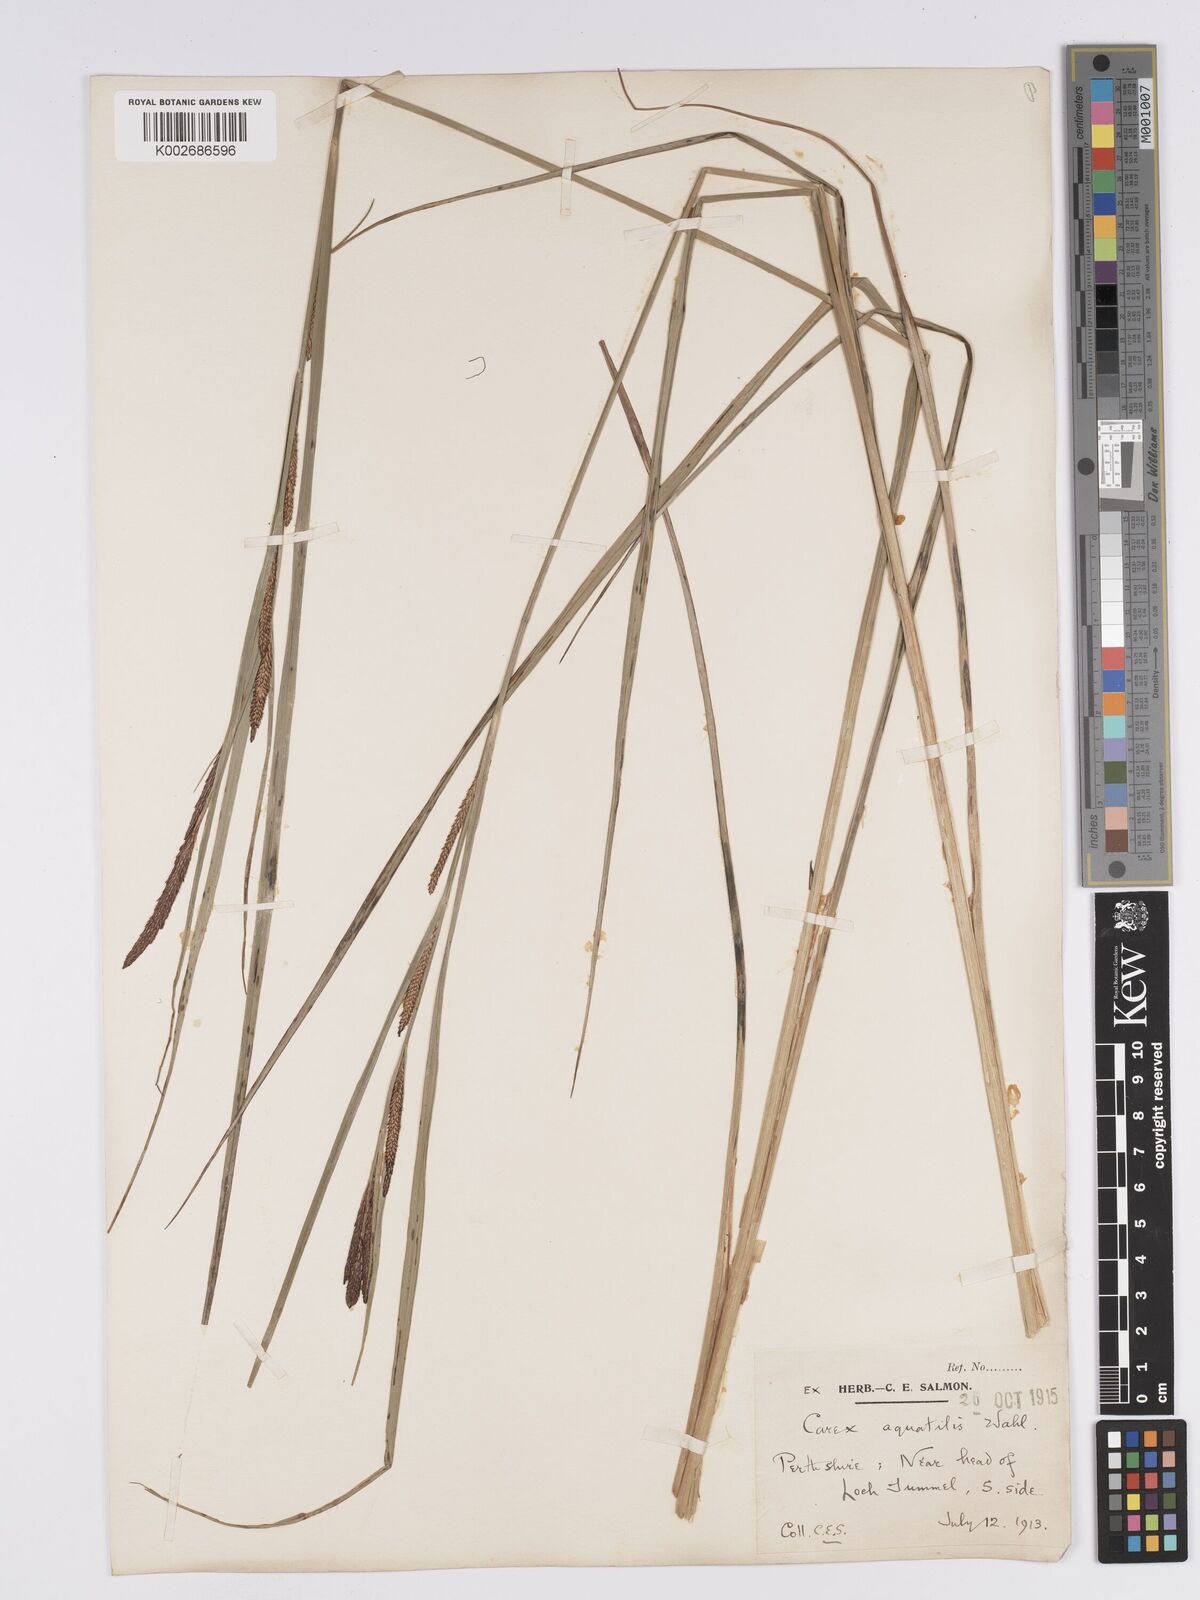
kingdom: Plantae
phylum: Tracheophyta
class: Liliopsida
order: Poales
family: Cyperaceae
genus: Carex
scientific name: Carex aquatilis
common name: Water sedge
